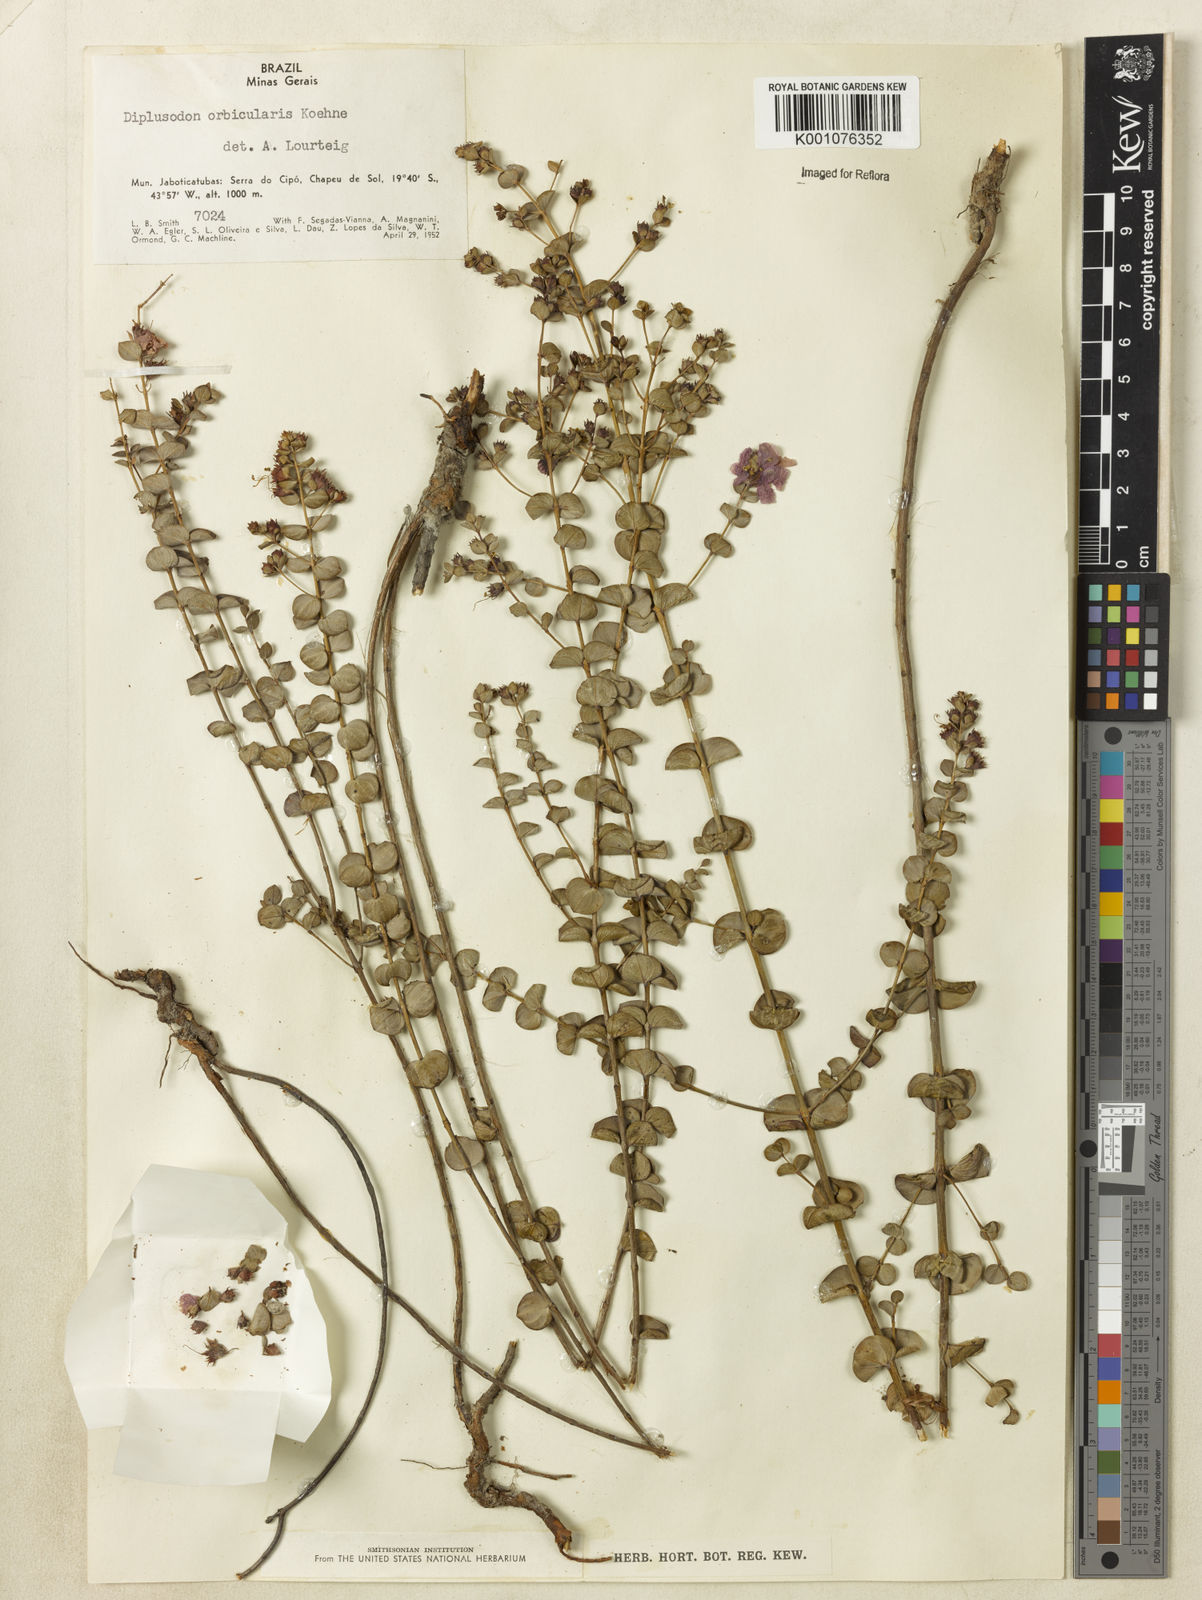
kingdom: Plantae
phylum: Tracheophyta
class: Magnoliopsida
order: Myrtales
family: Lythraceae
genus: Diplusodon
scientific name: Diplusodon orbicularis
